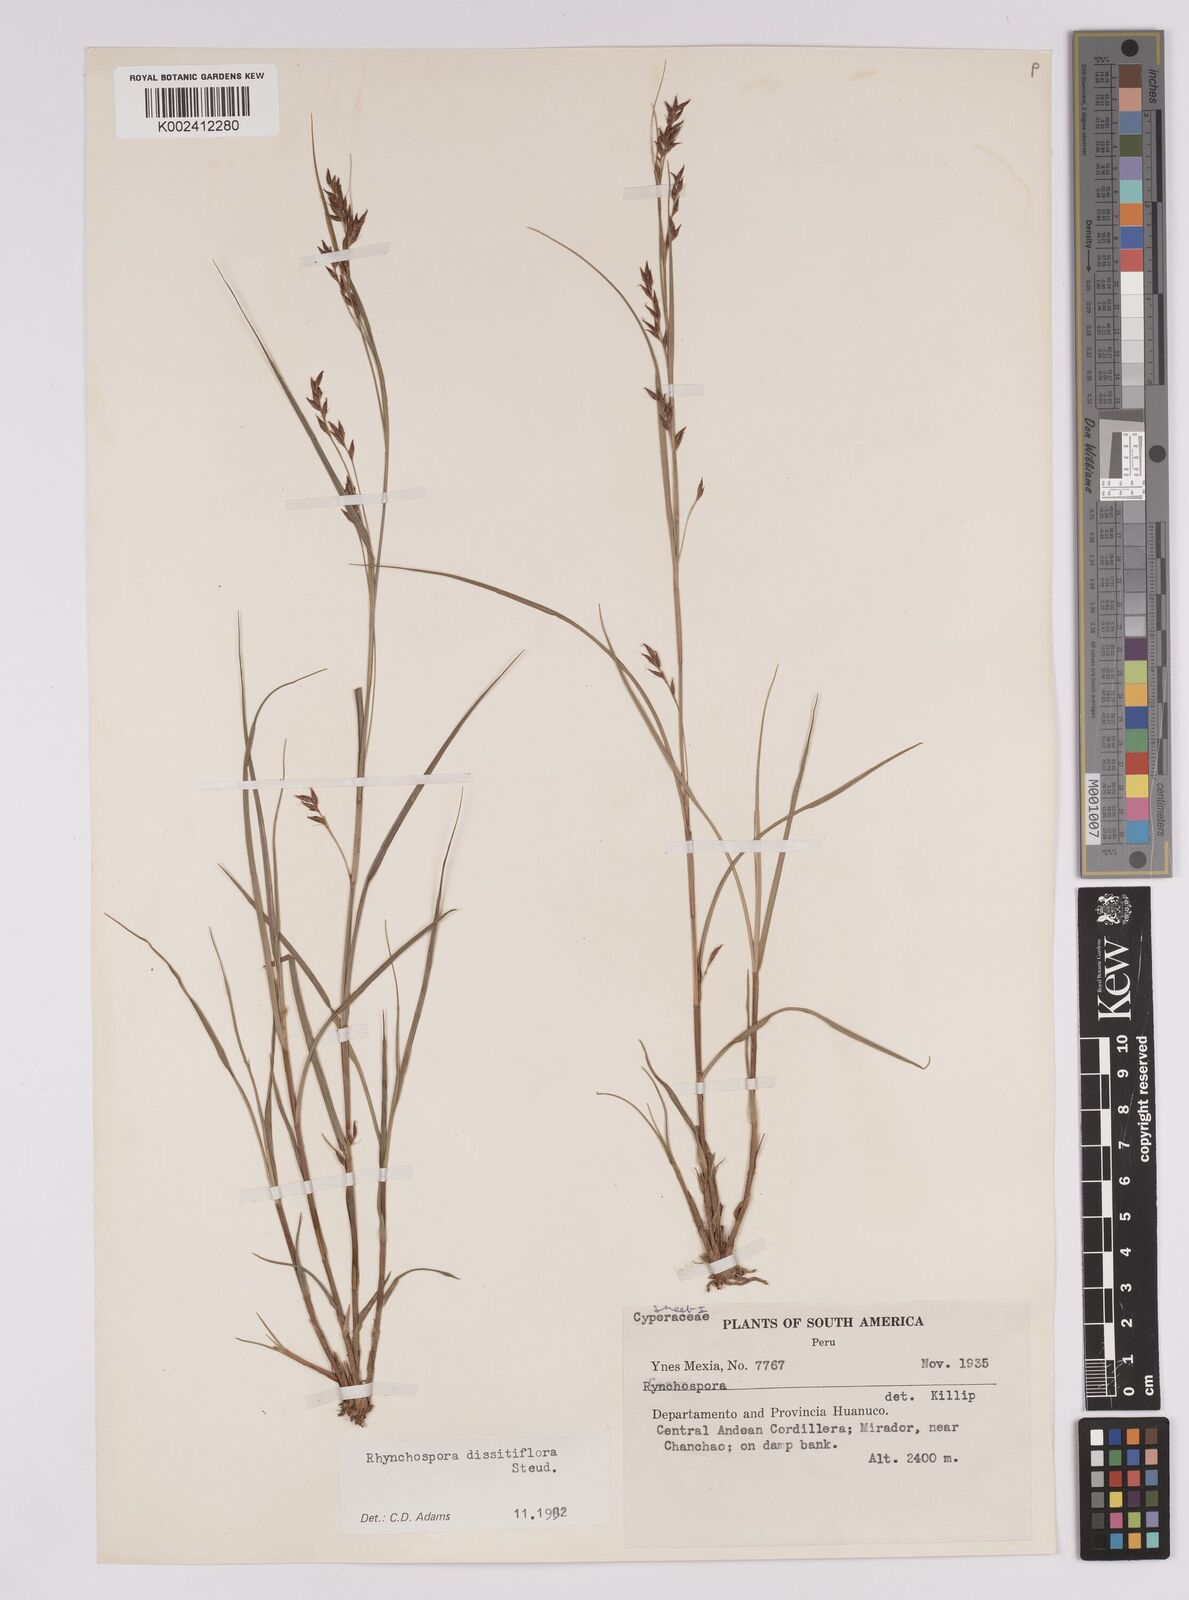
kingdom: Plantae
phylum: Tracheophyta
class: Liliopsida
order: Poales
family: Cyperaceae
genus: Rhynchospora
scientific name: Rhynchospora dissitiflora
